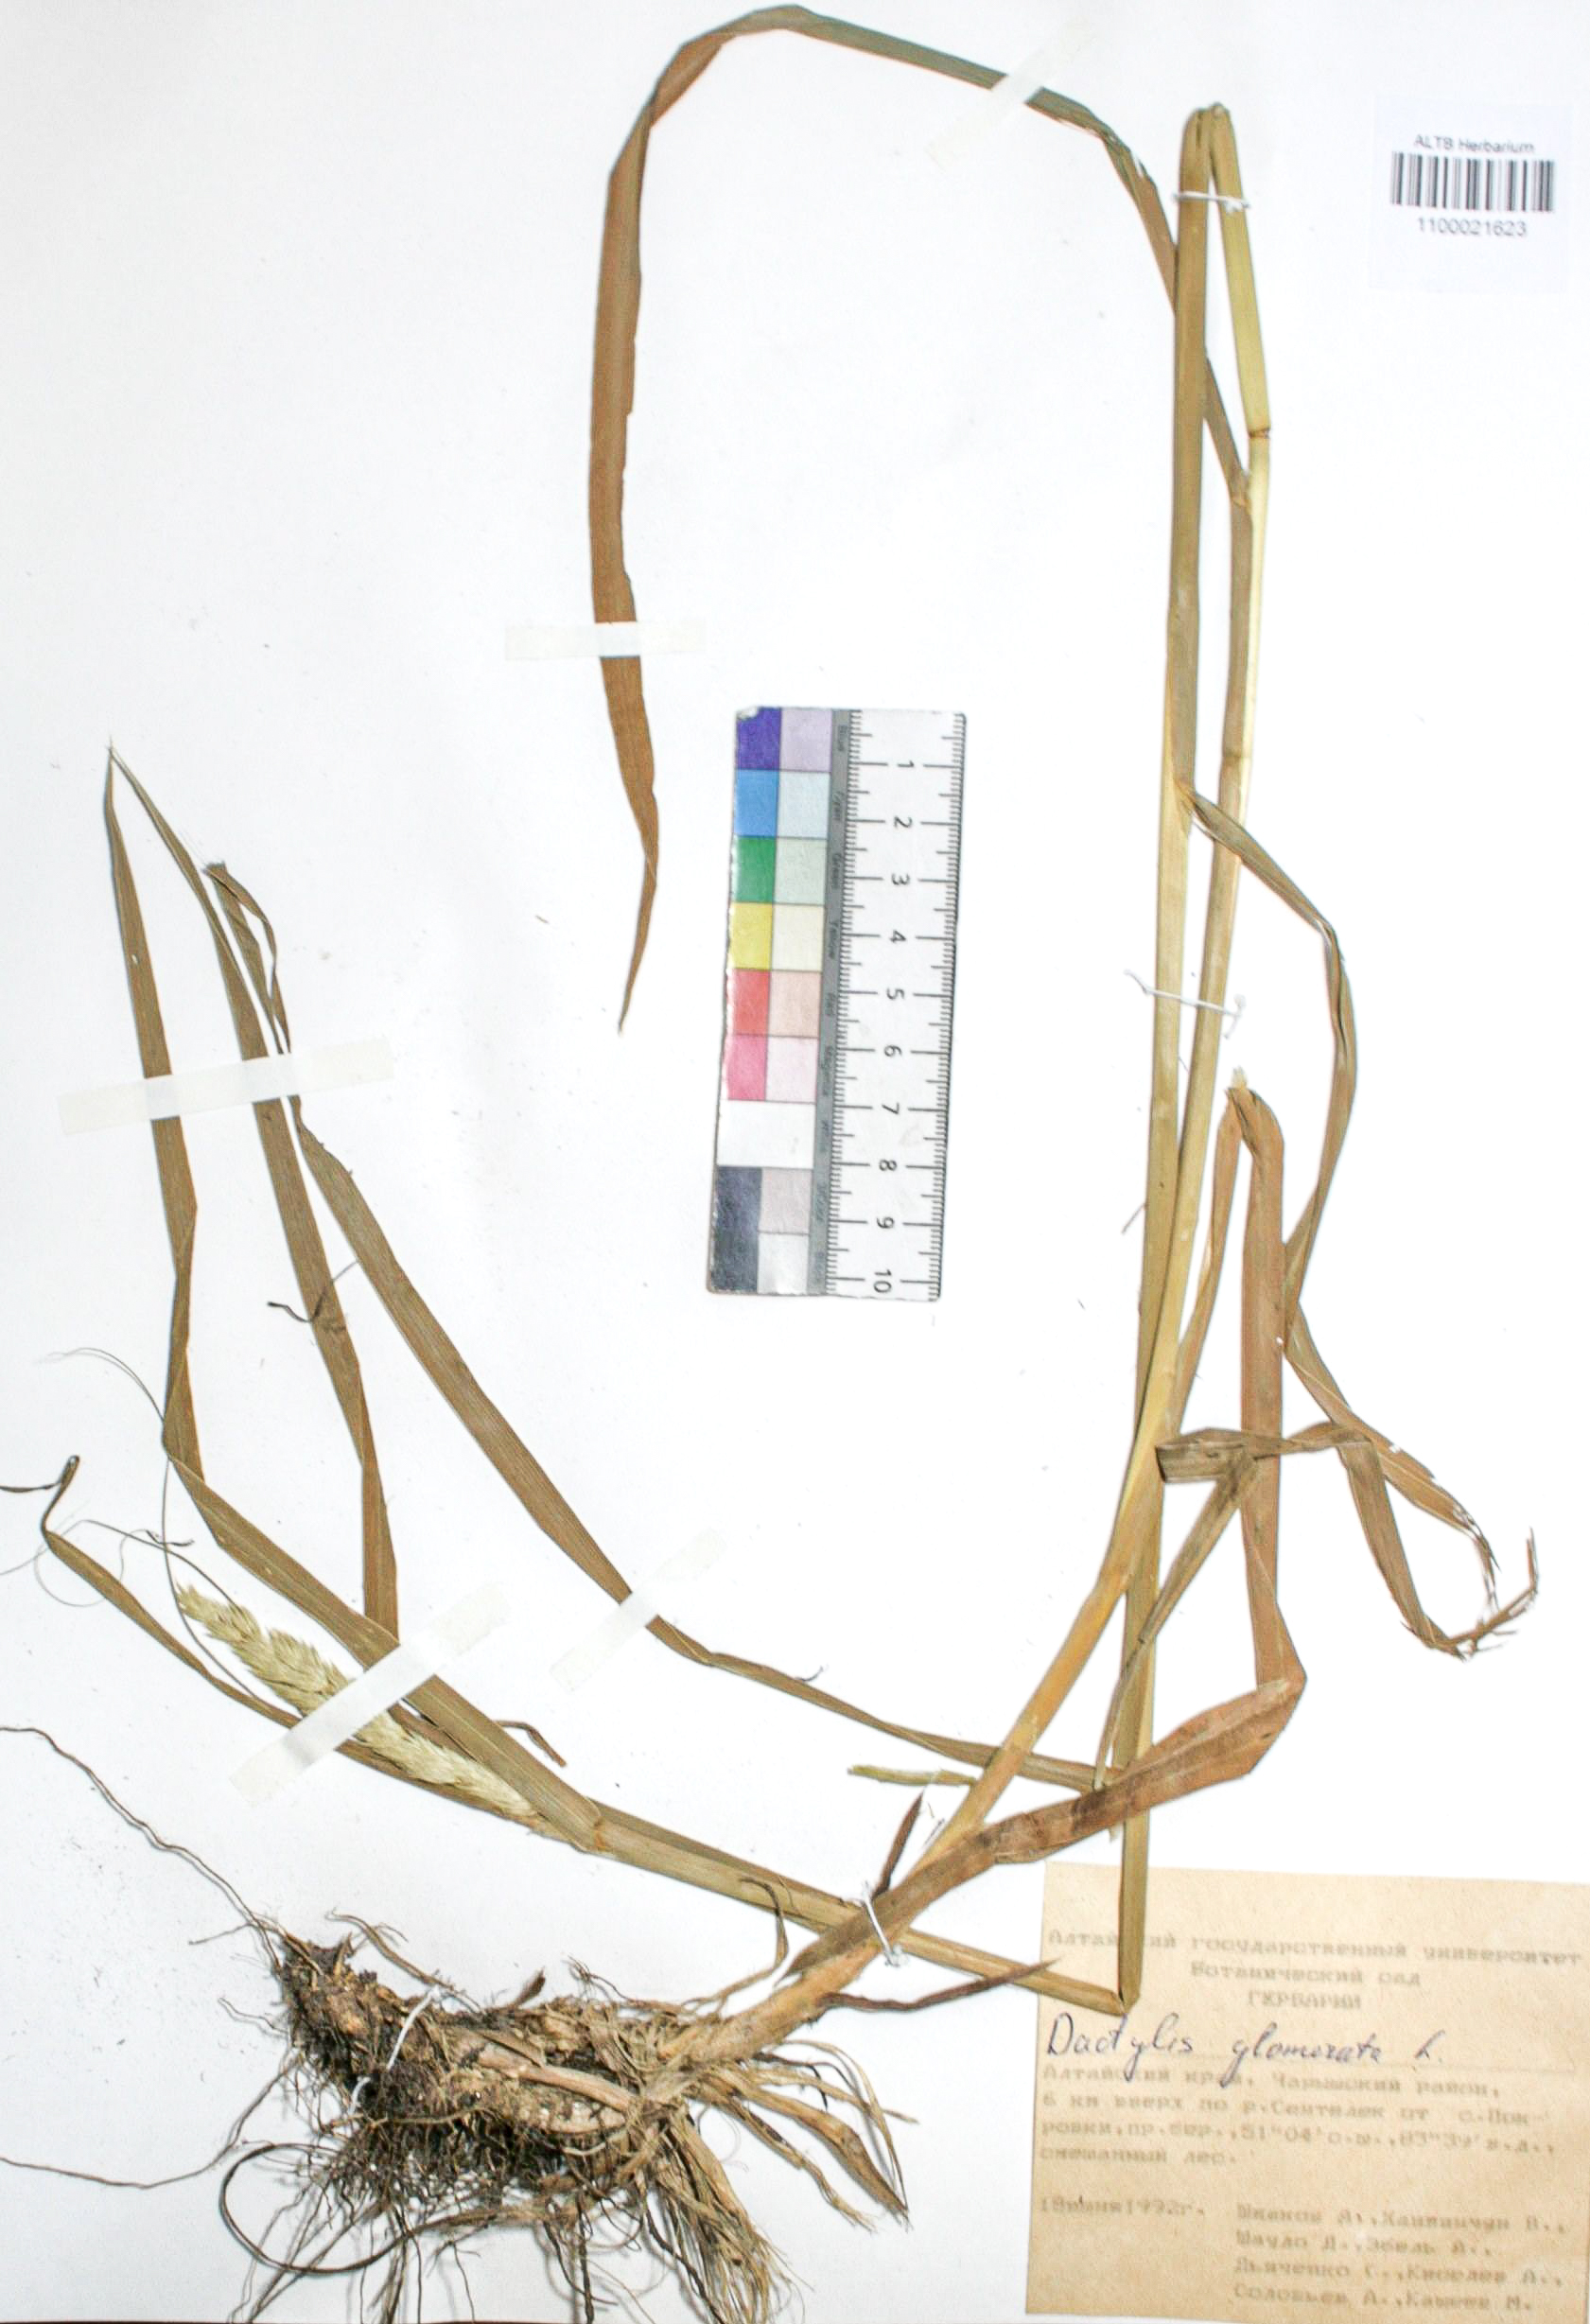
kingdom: Plantae
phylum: Tracheophyta
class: Liliopsida
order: Poales
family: Poaceae
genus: Dactylis
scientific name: Dactylis glomerata
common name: Orchardgrass
